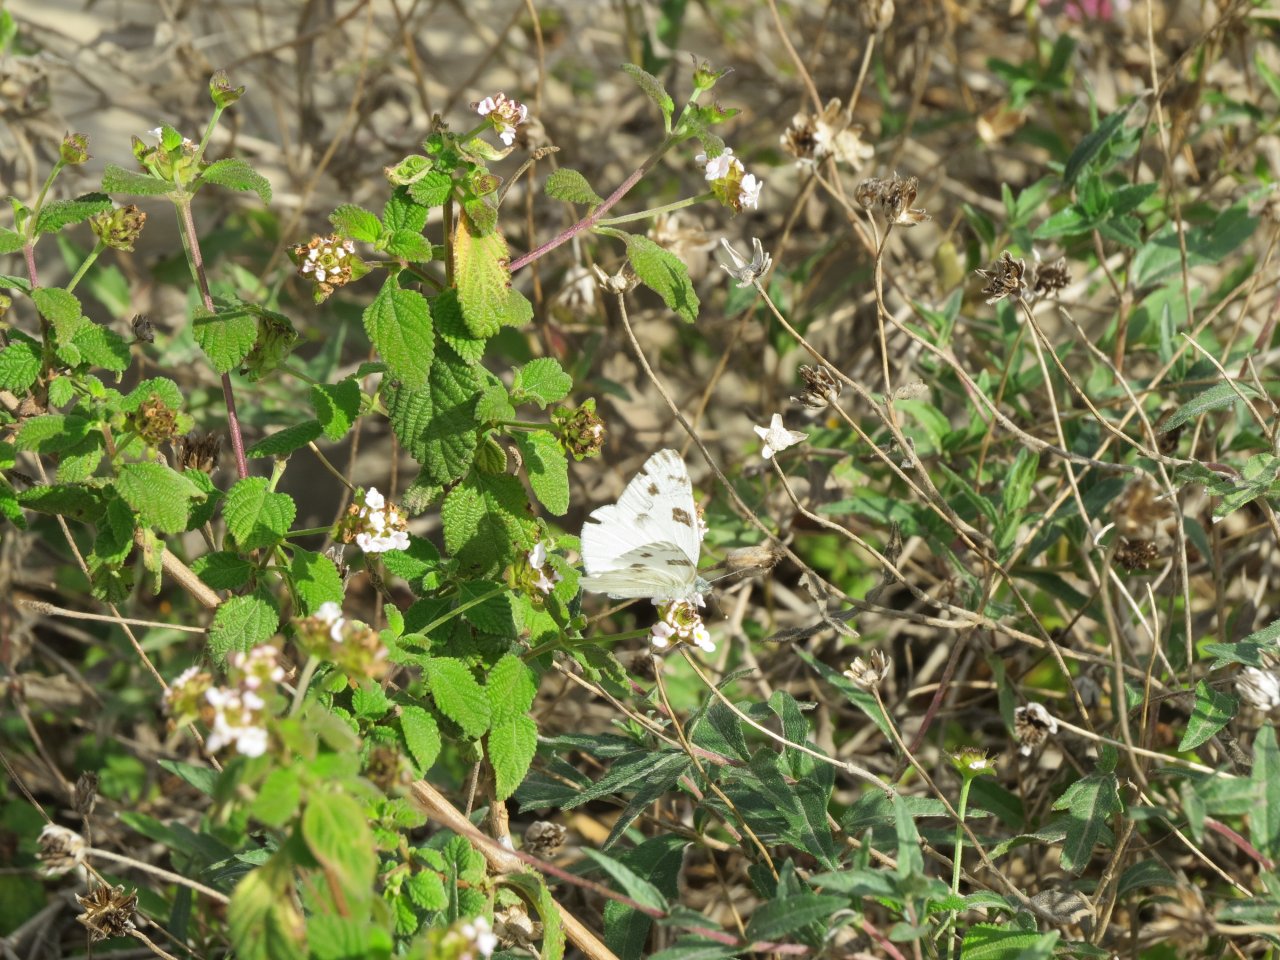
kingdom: Animalia
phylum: Arthropoda
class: Insecta
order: Lepidoptera
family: Pieridae
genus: Pontia
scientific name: Pontia protodice
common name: Checkered White
